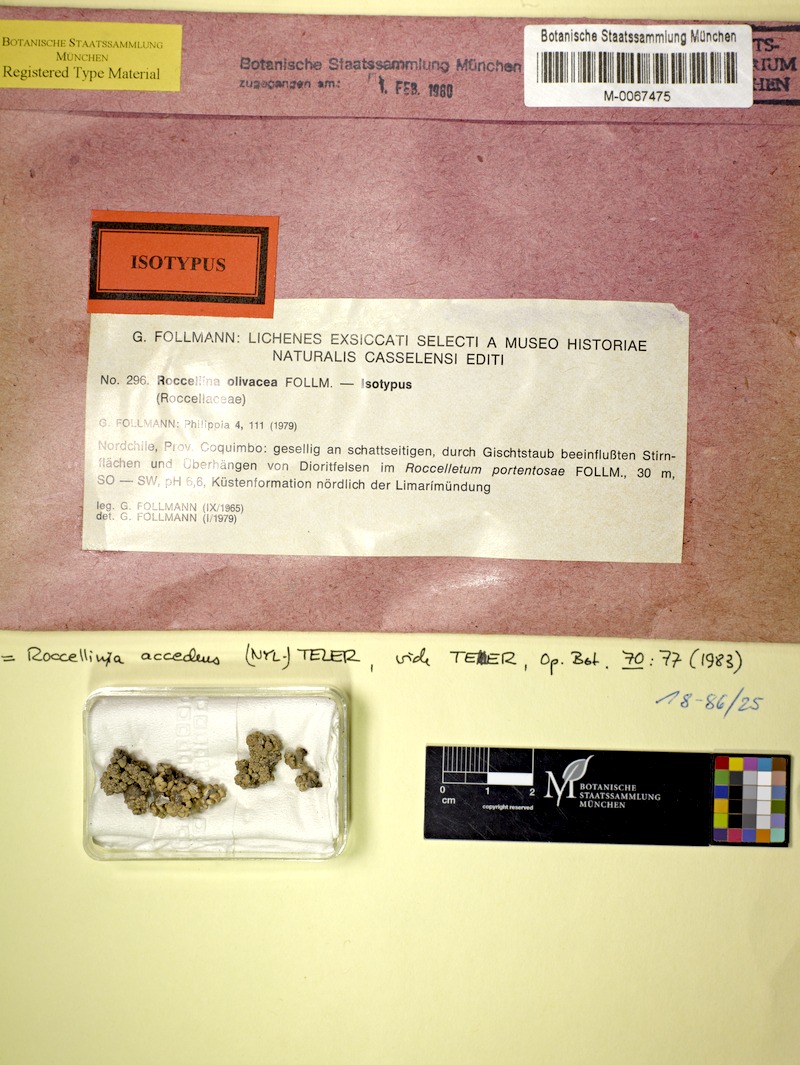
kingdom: Fungi
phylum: Ascomycota
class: Arthoniomycetes
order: Arthoniales
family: Roccellaceae
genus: Roccellina
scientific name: Roccellina accedens
